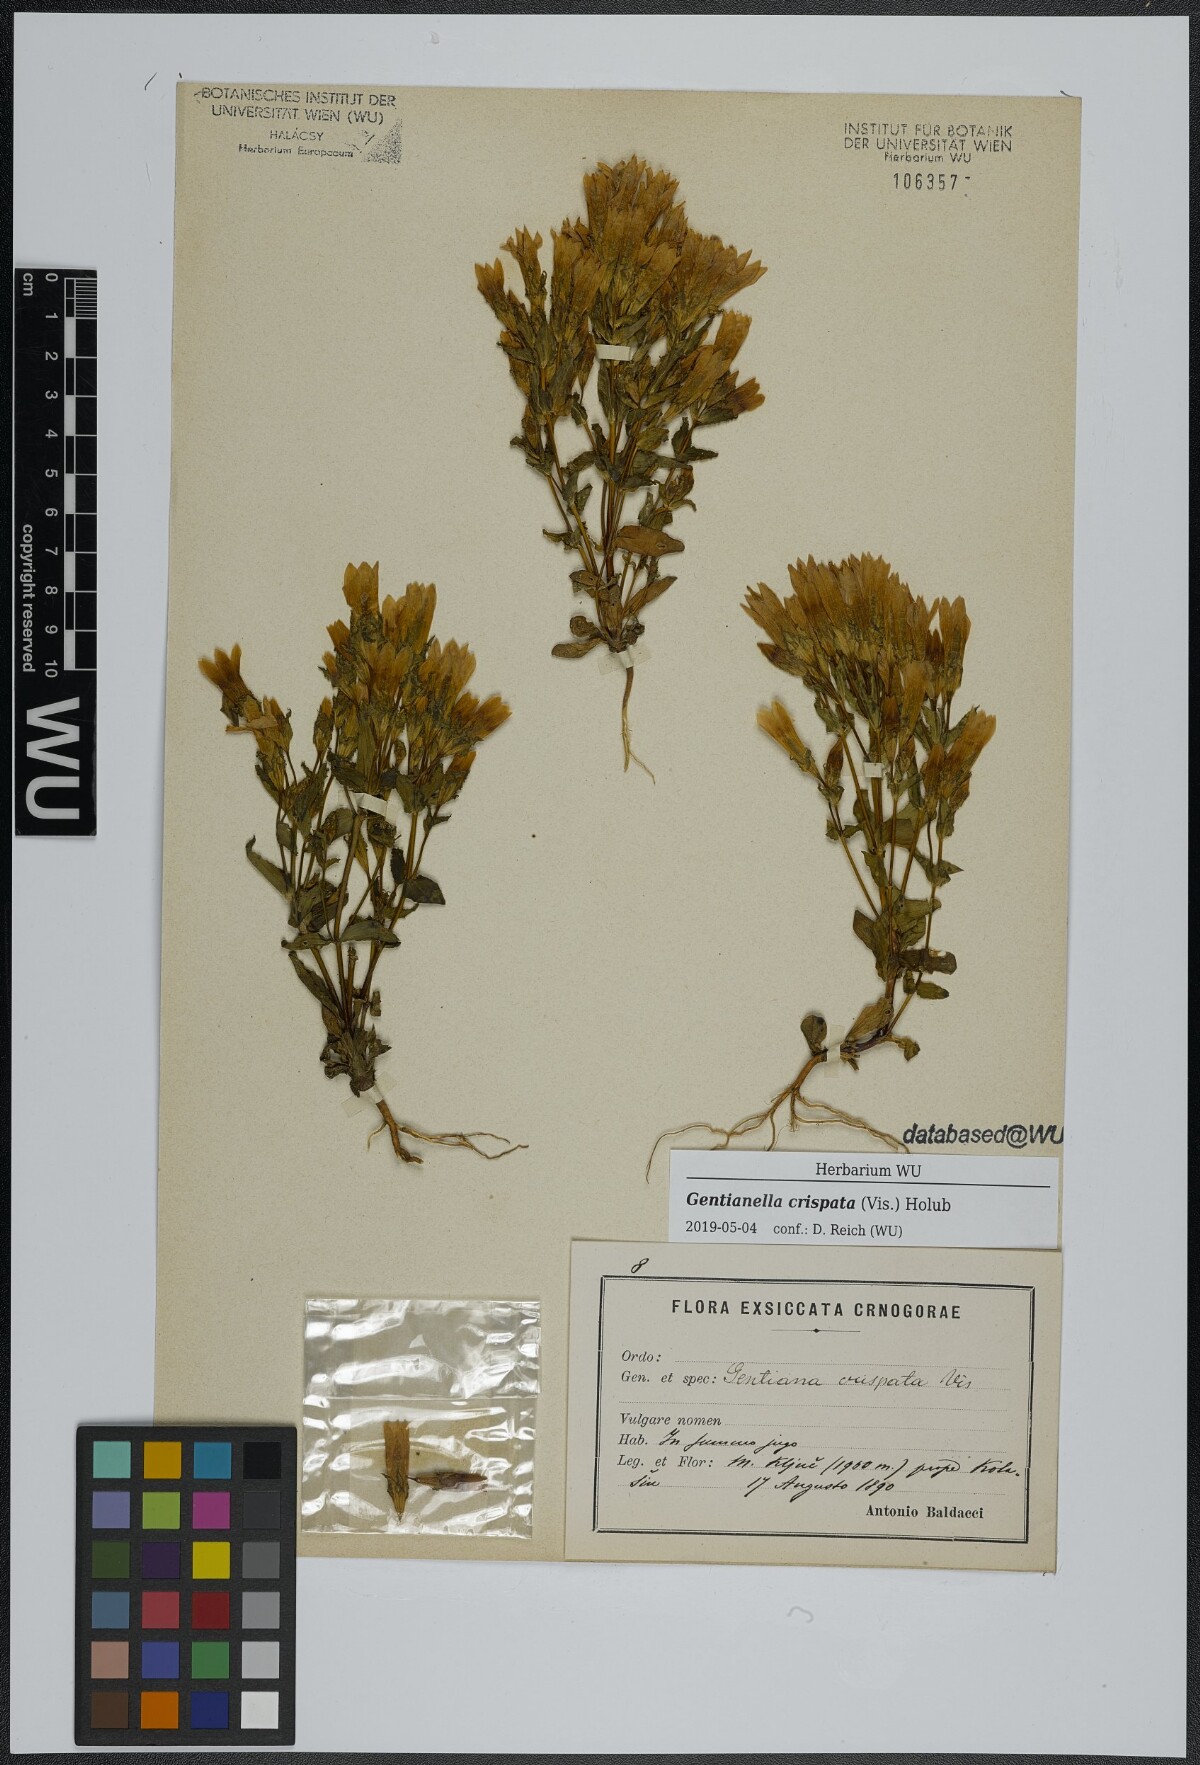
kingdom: Plantae
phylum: Tracheophyta
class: Magnoliopsida
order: Gentianales
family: Gentianaceae
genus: Gentianella
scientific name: Gentianella crispata
